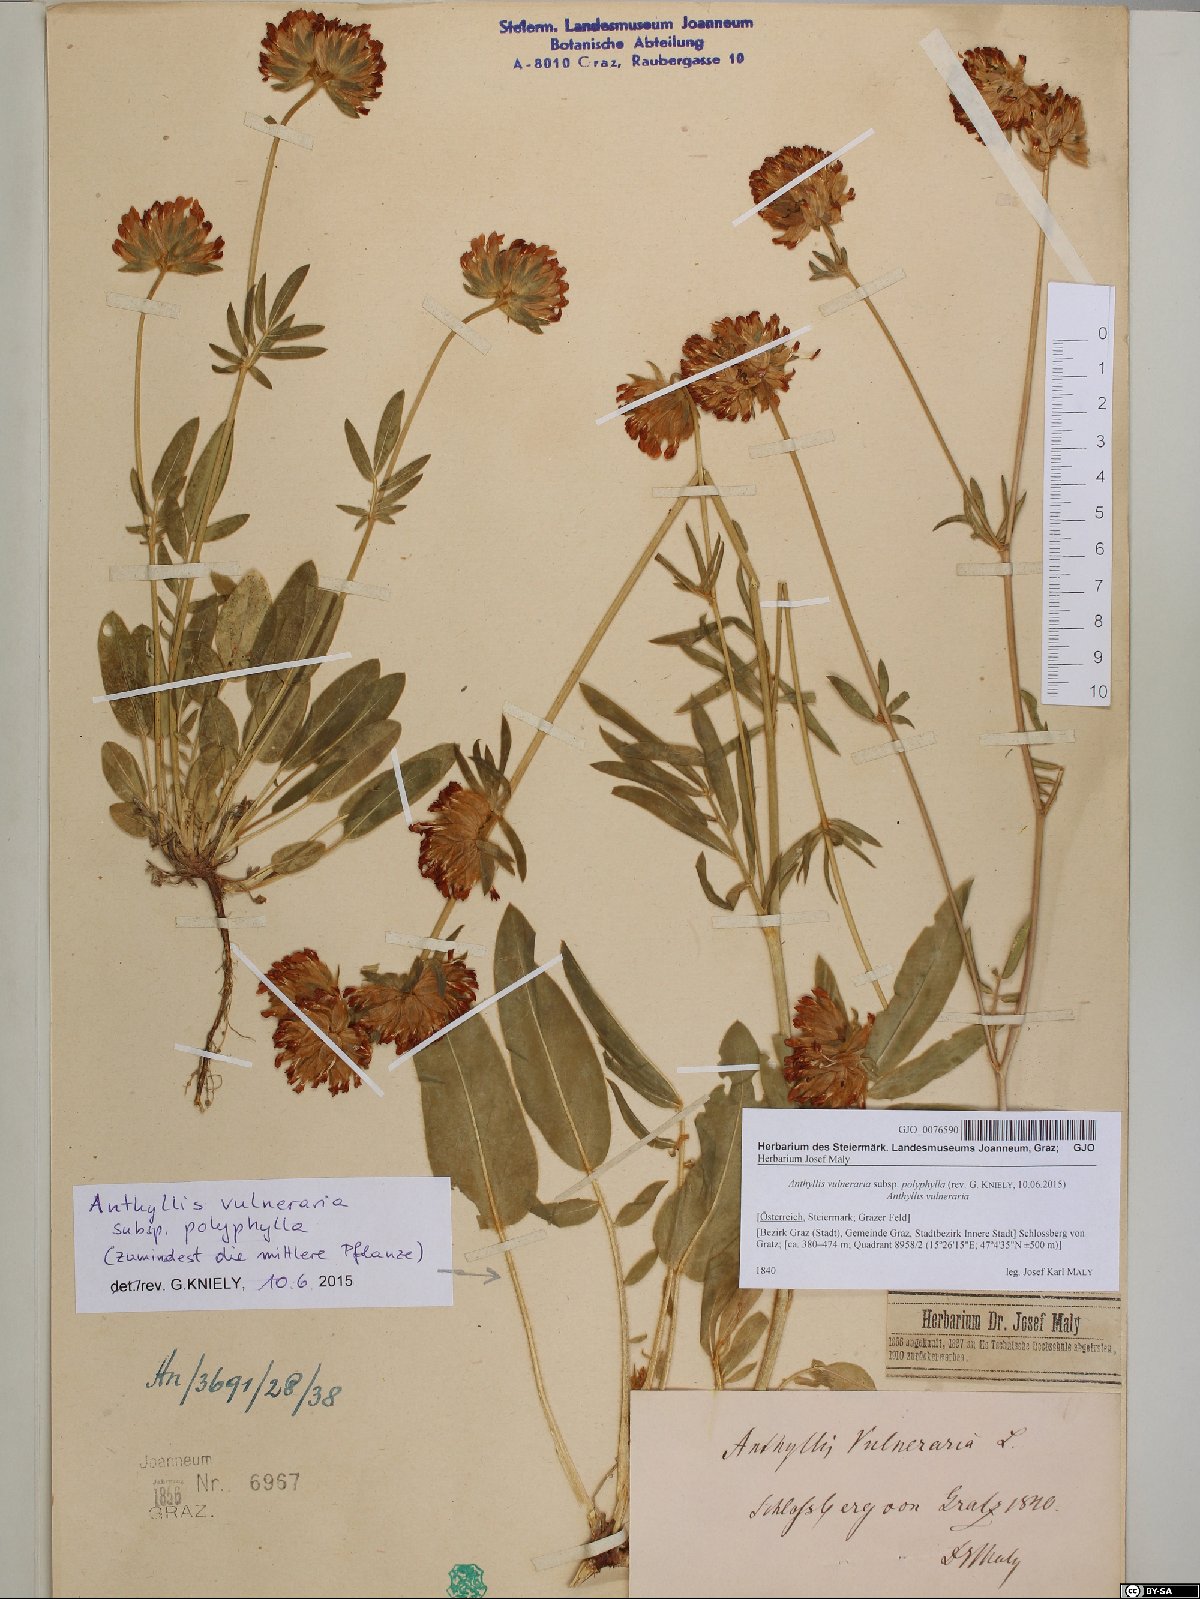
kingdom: Plantae
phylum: Tracheophyta
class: Magnoliopsida
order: Fabales
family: Fabaceae
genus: Anthyllis
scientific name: Anthyllis vulneraria
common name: Kidney vetch
